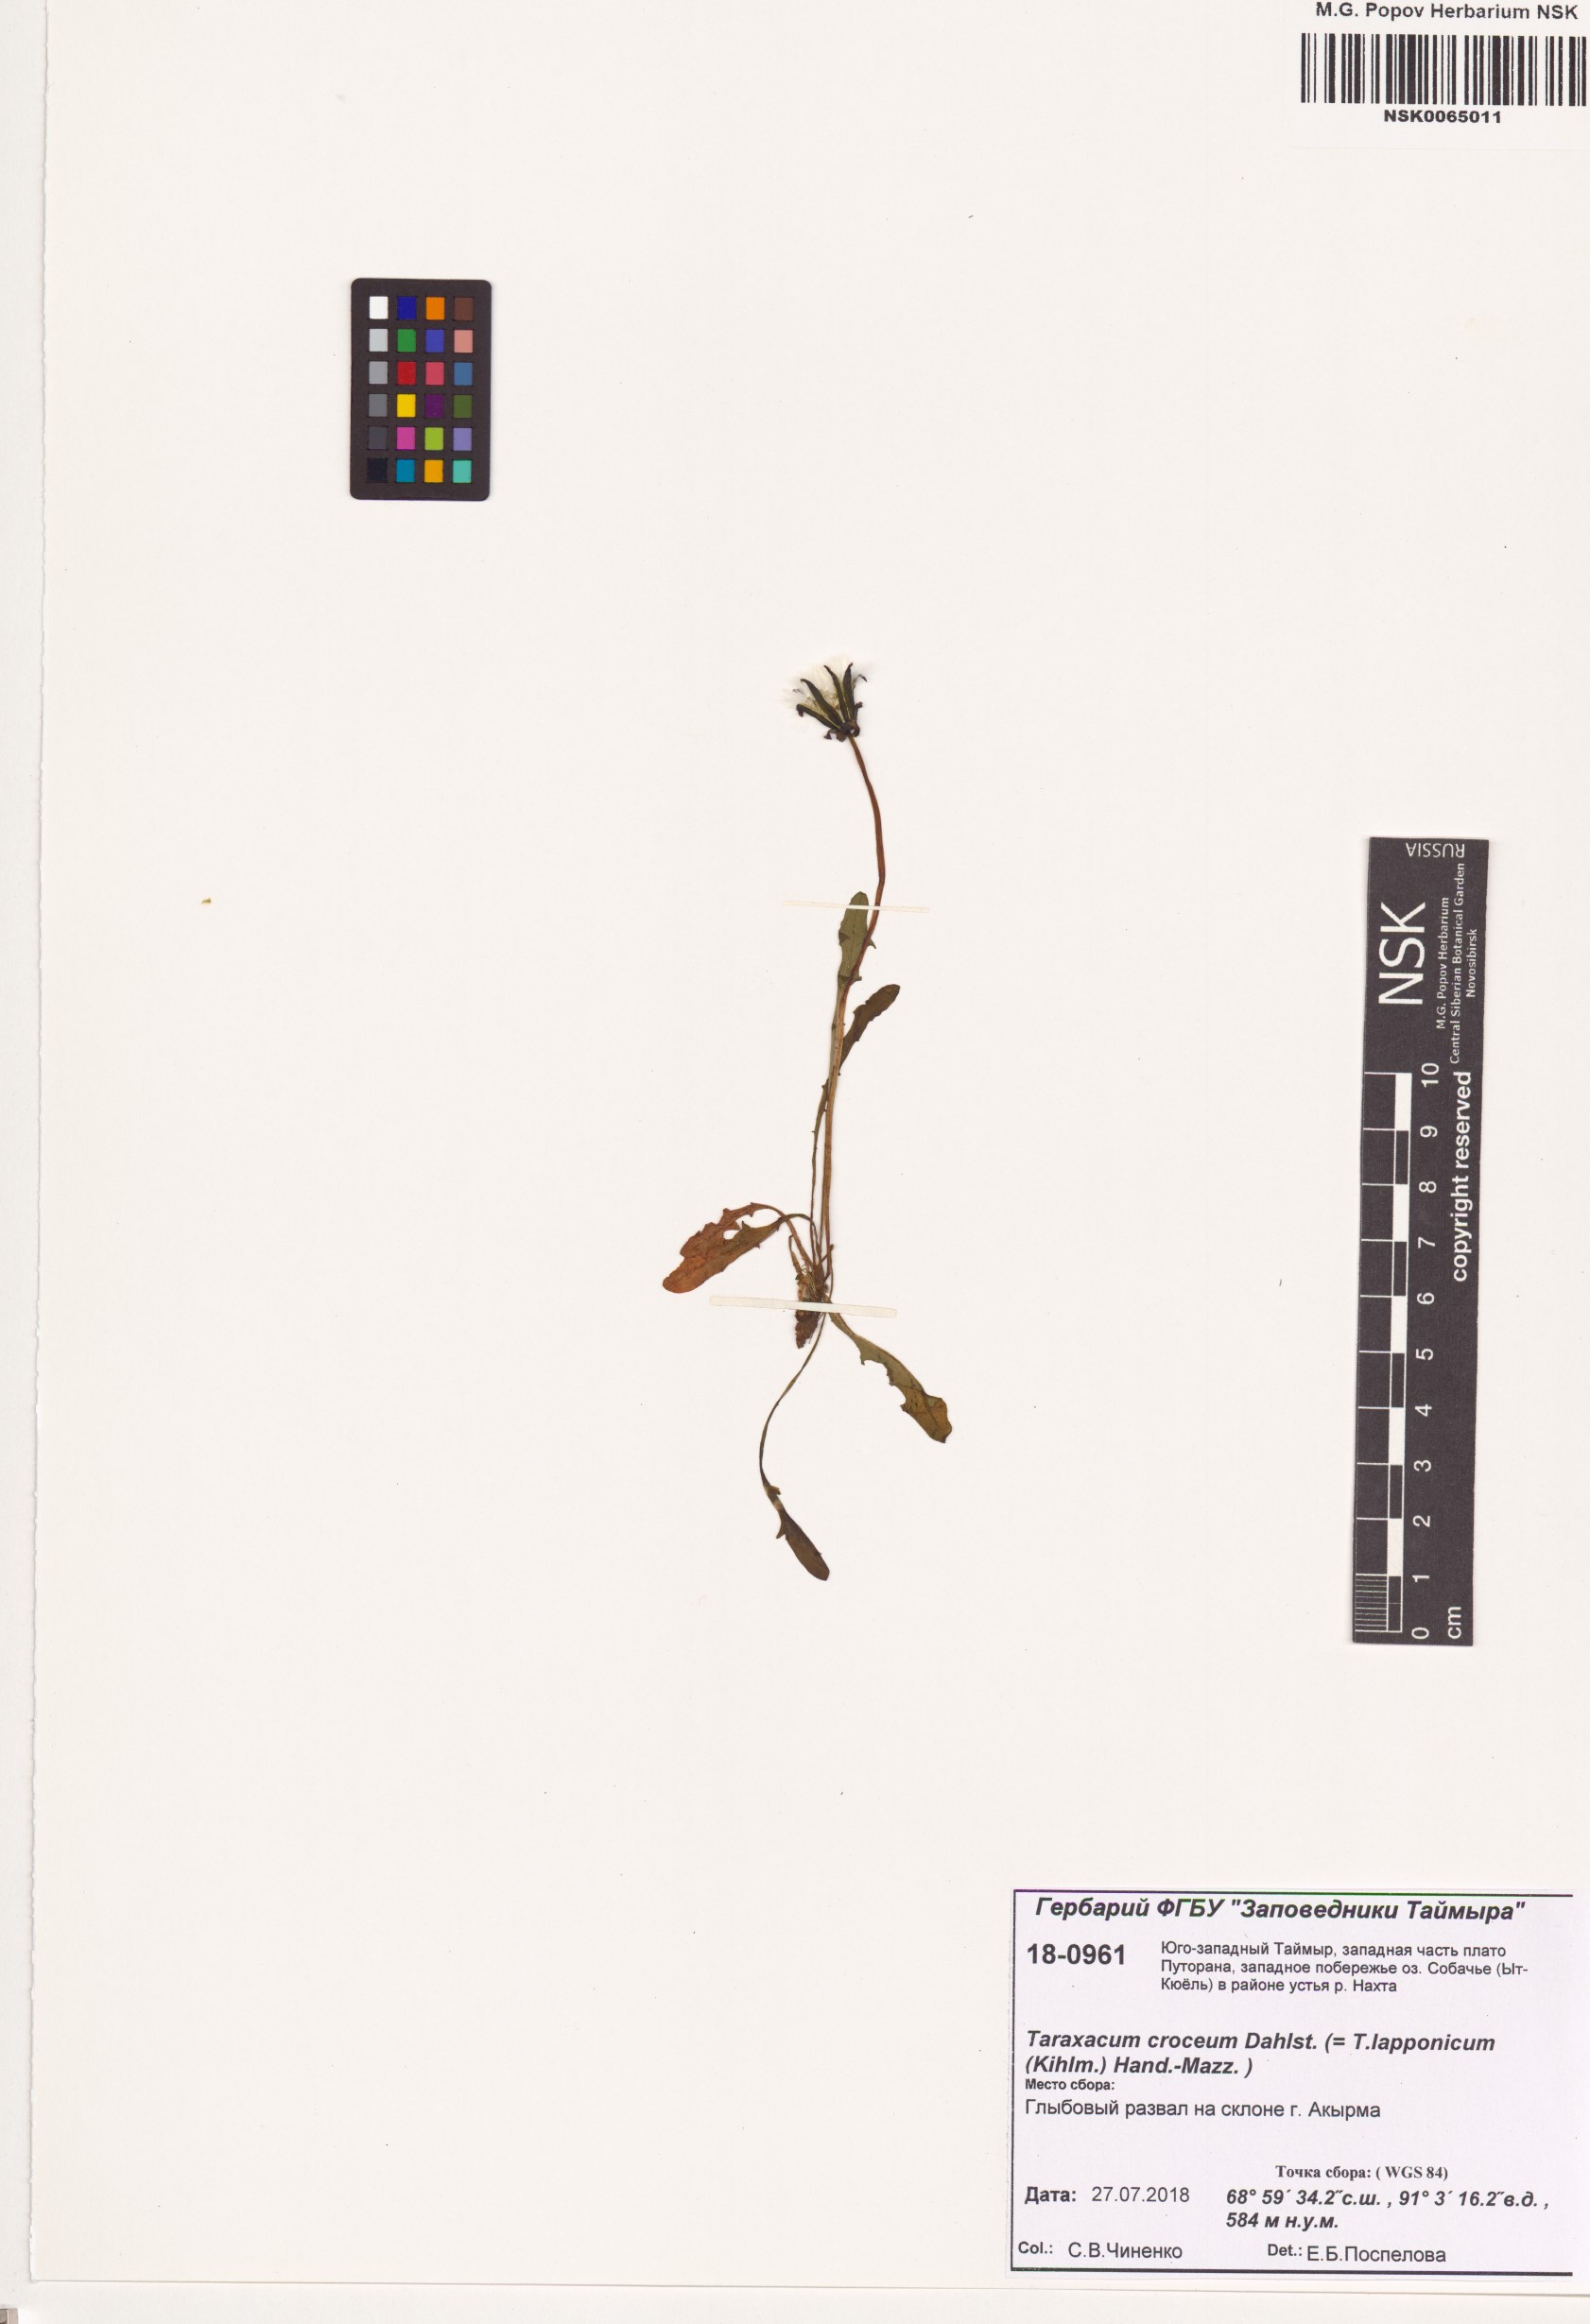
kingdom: Plantae
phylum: Tracheophyta
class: Magnoliopsida
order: Asterales
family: Asteraceae
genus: Taraxacum
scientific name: Taraxacum croceum
